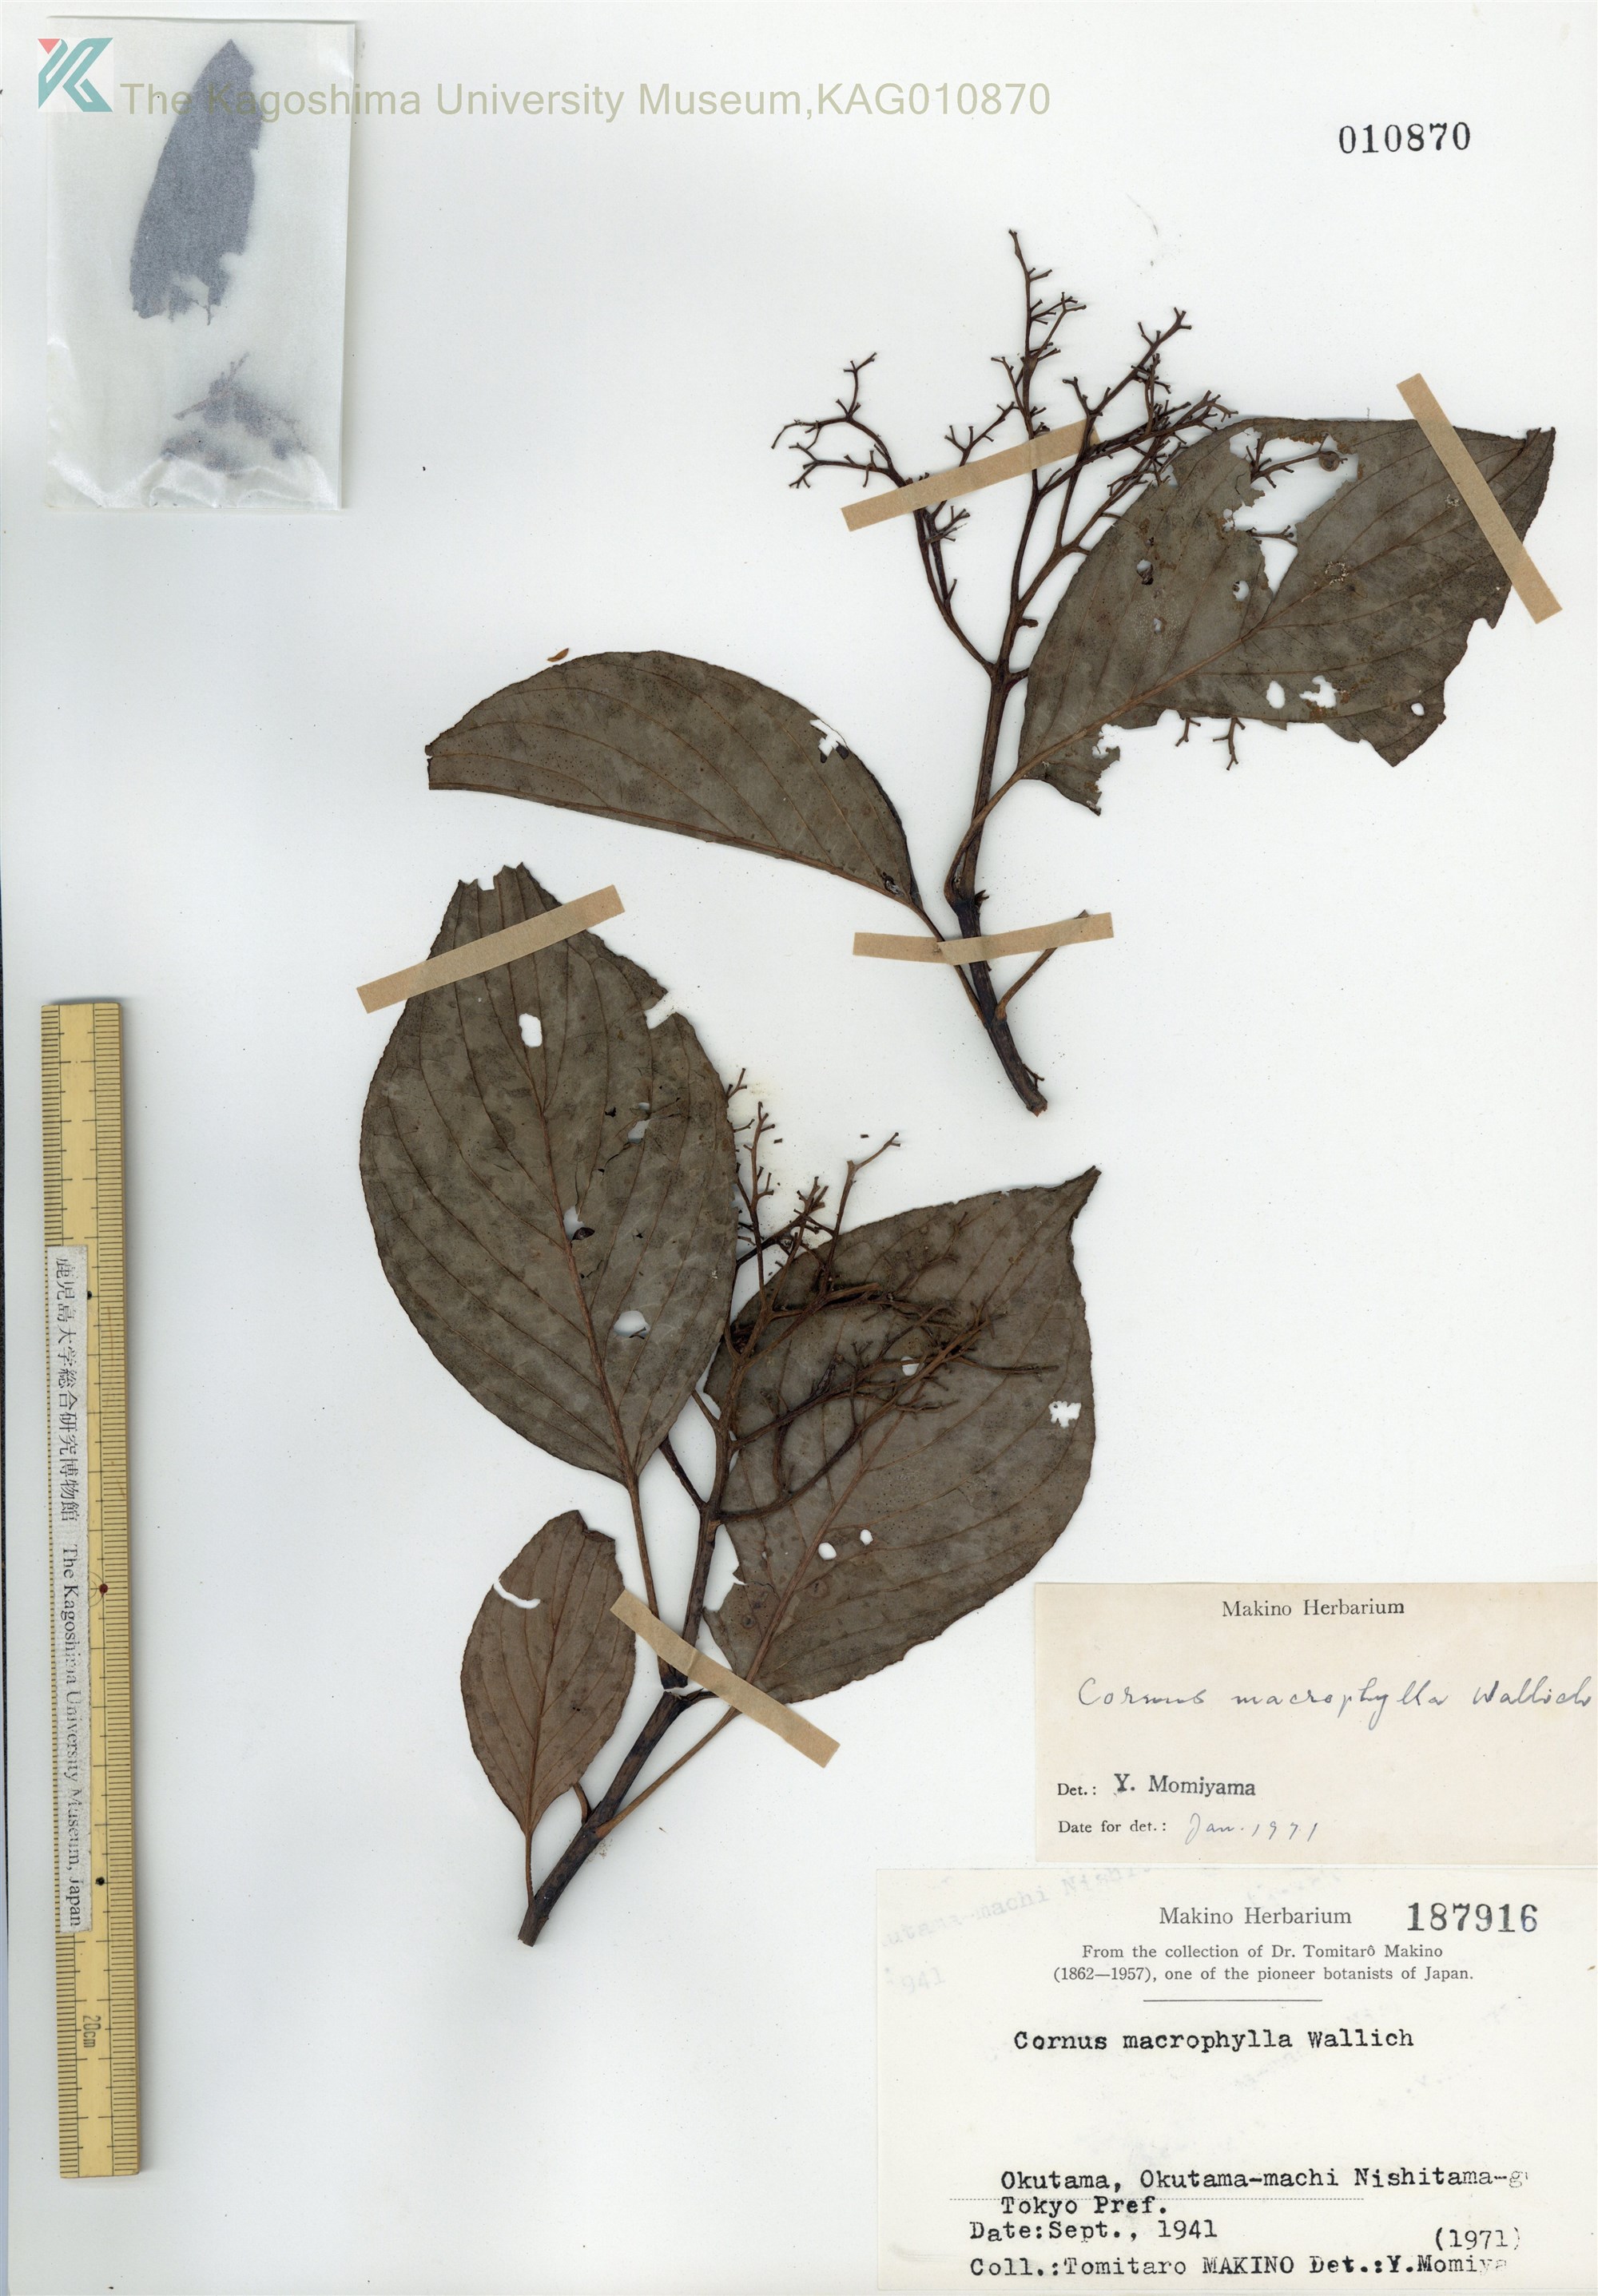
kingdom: Plantae
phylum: Tracheophyta
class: Magnoliopsida
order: Cornales
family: Cornaceae
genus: Cornus
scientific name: Cornus macrophylla
